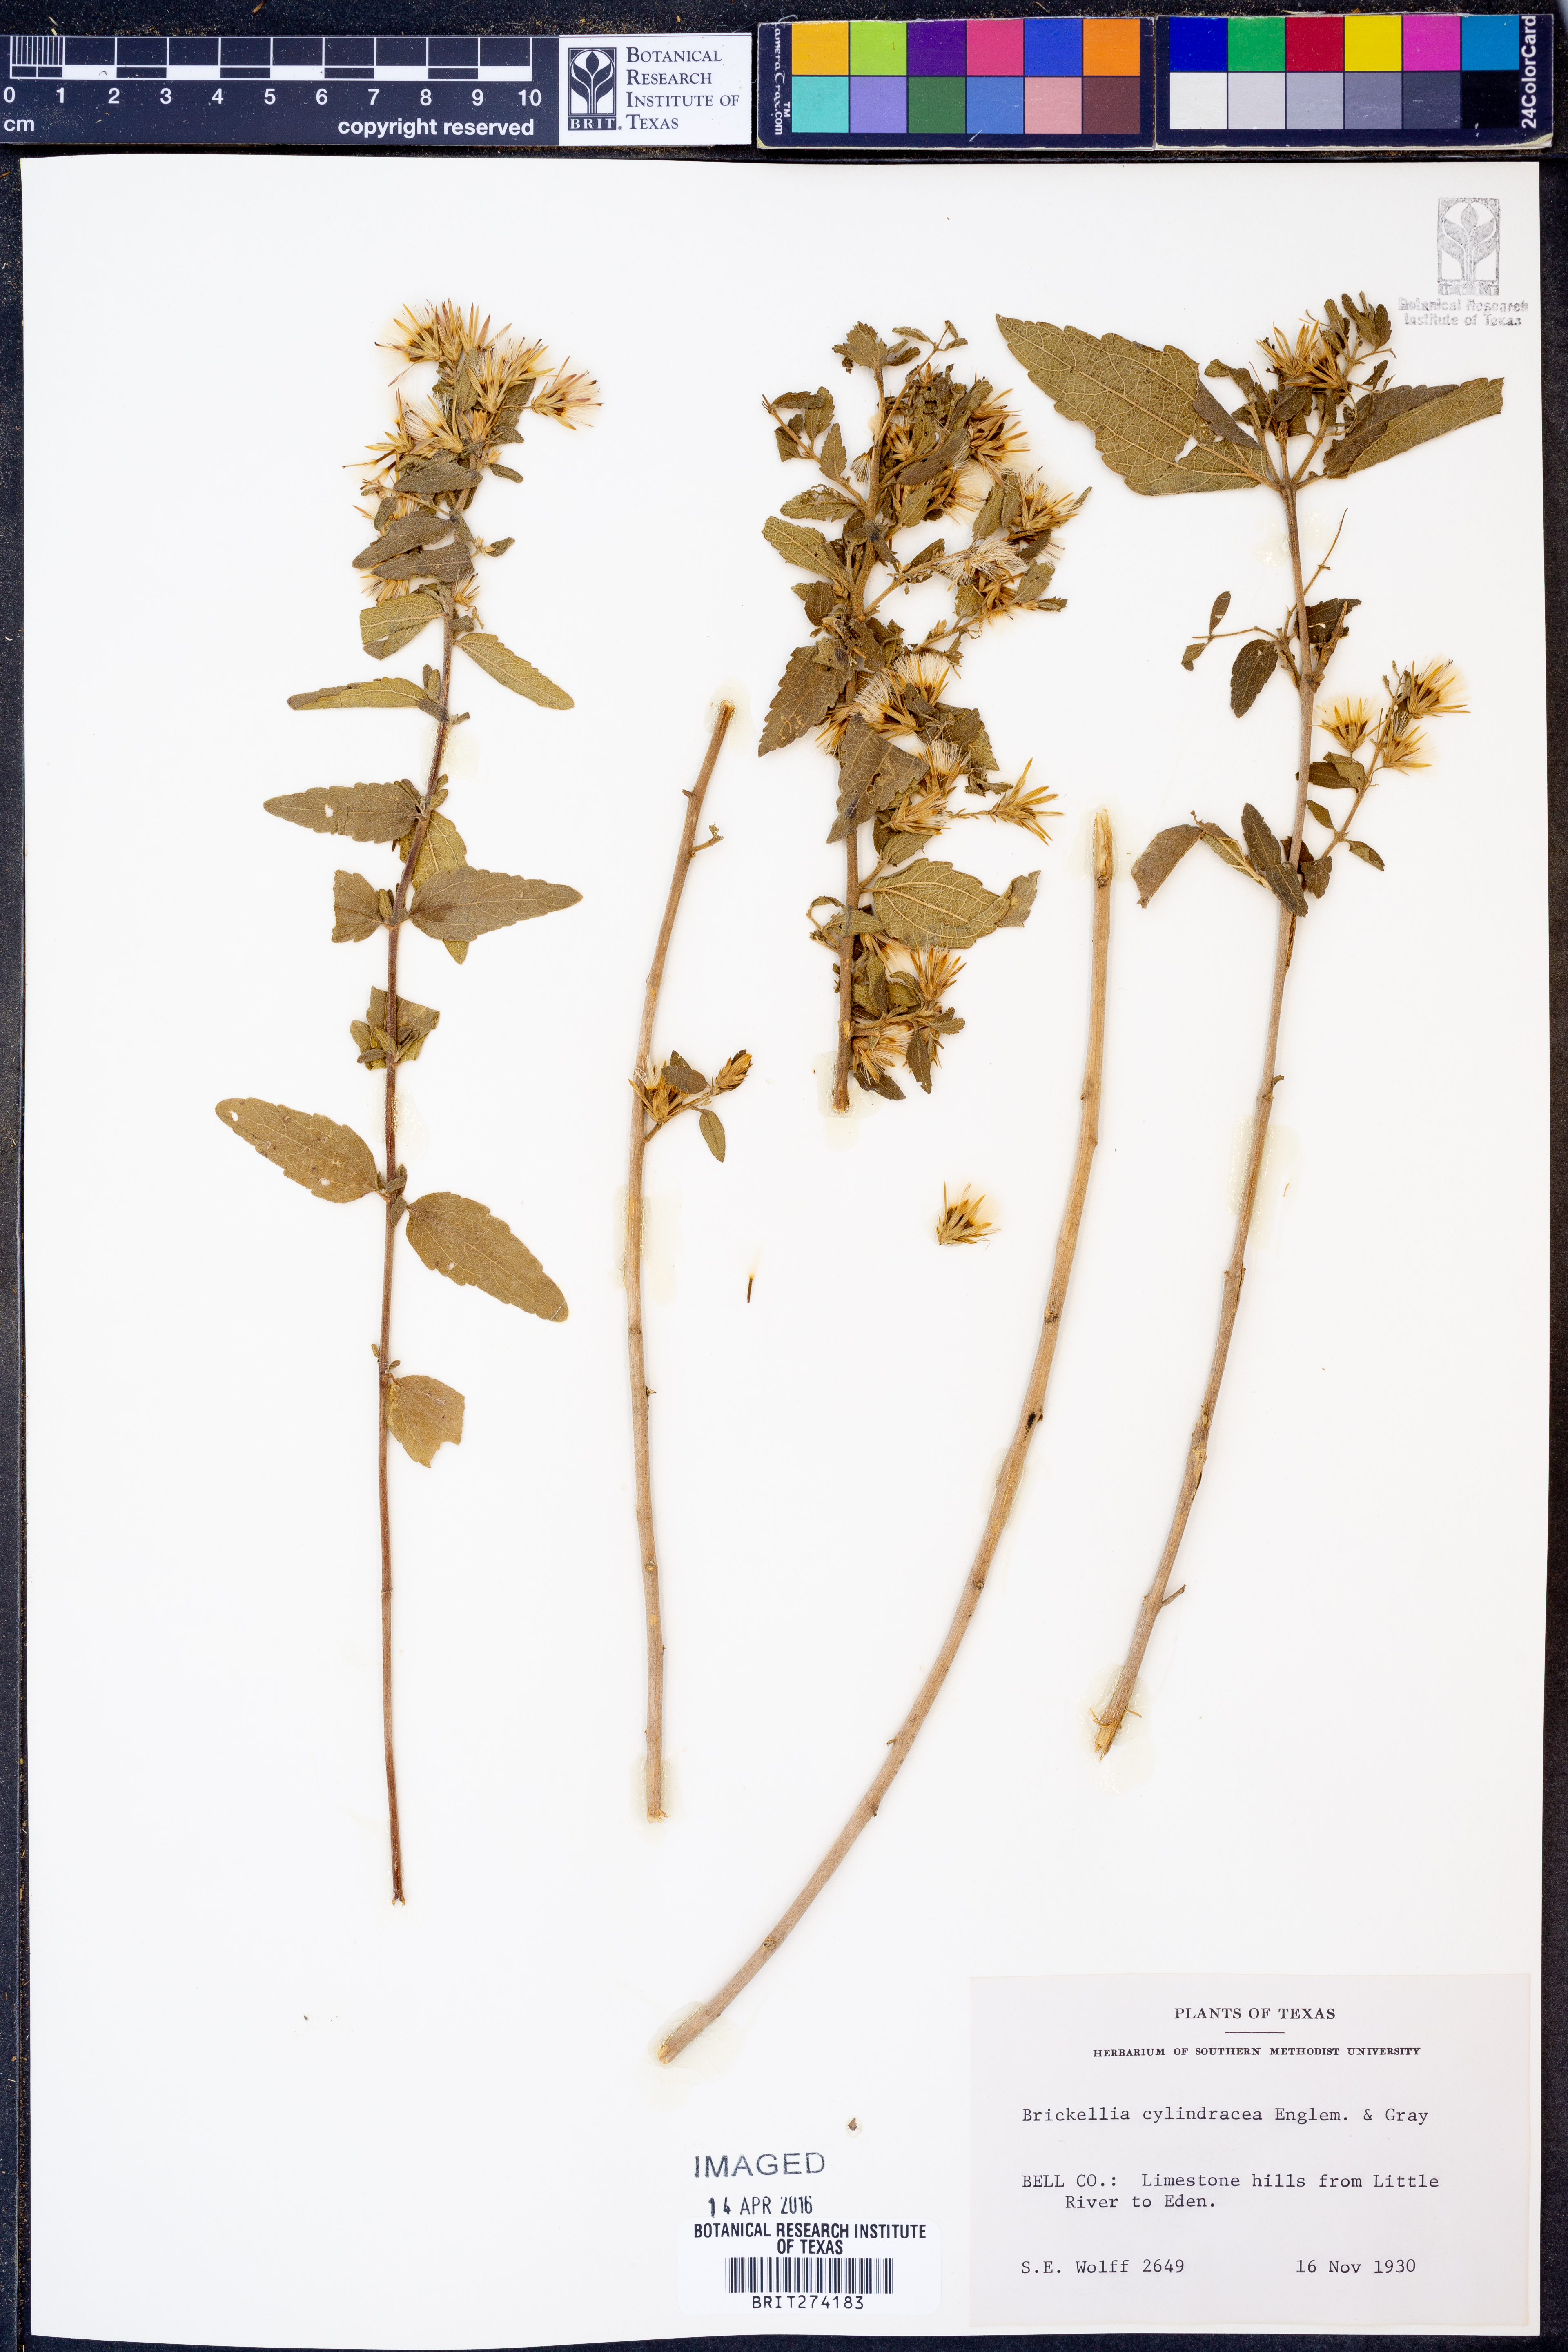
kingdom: Plantae
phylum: Tracheophyta
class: Magnoliopsida
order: Asterales
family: Asteraceae
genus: Brickellia
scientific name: Brickellia cylindracea
